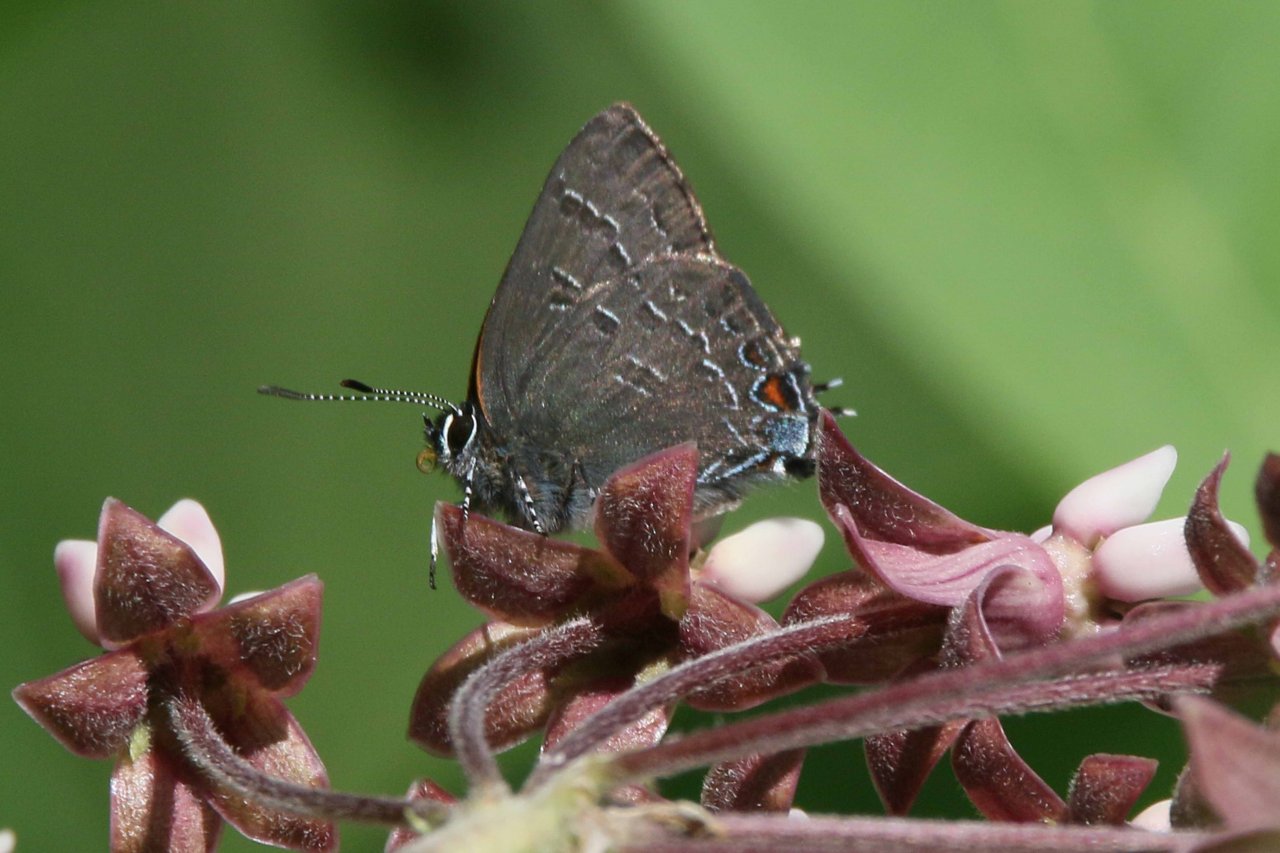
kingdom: Animalia
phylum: Arthropoda
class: Insecta
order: Lepidoptera
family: Lycaenidae
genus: Satyrium
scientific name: Satyrium calanus
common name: Banded Hairstreak
